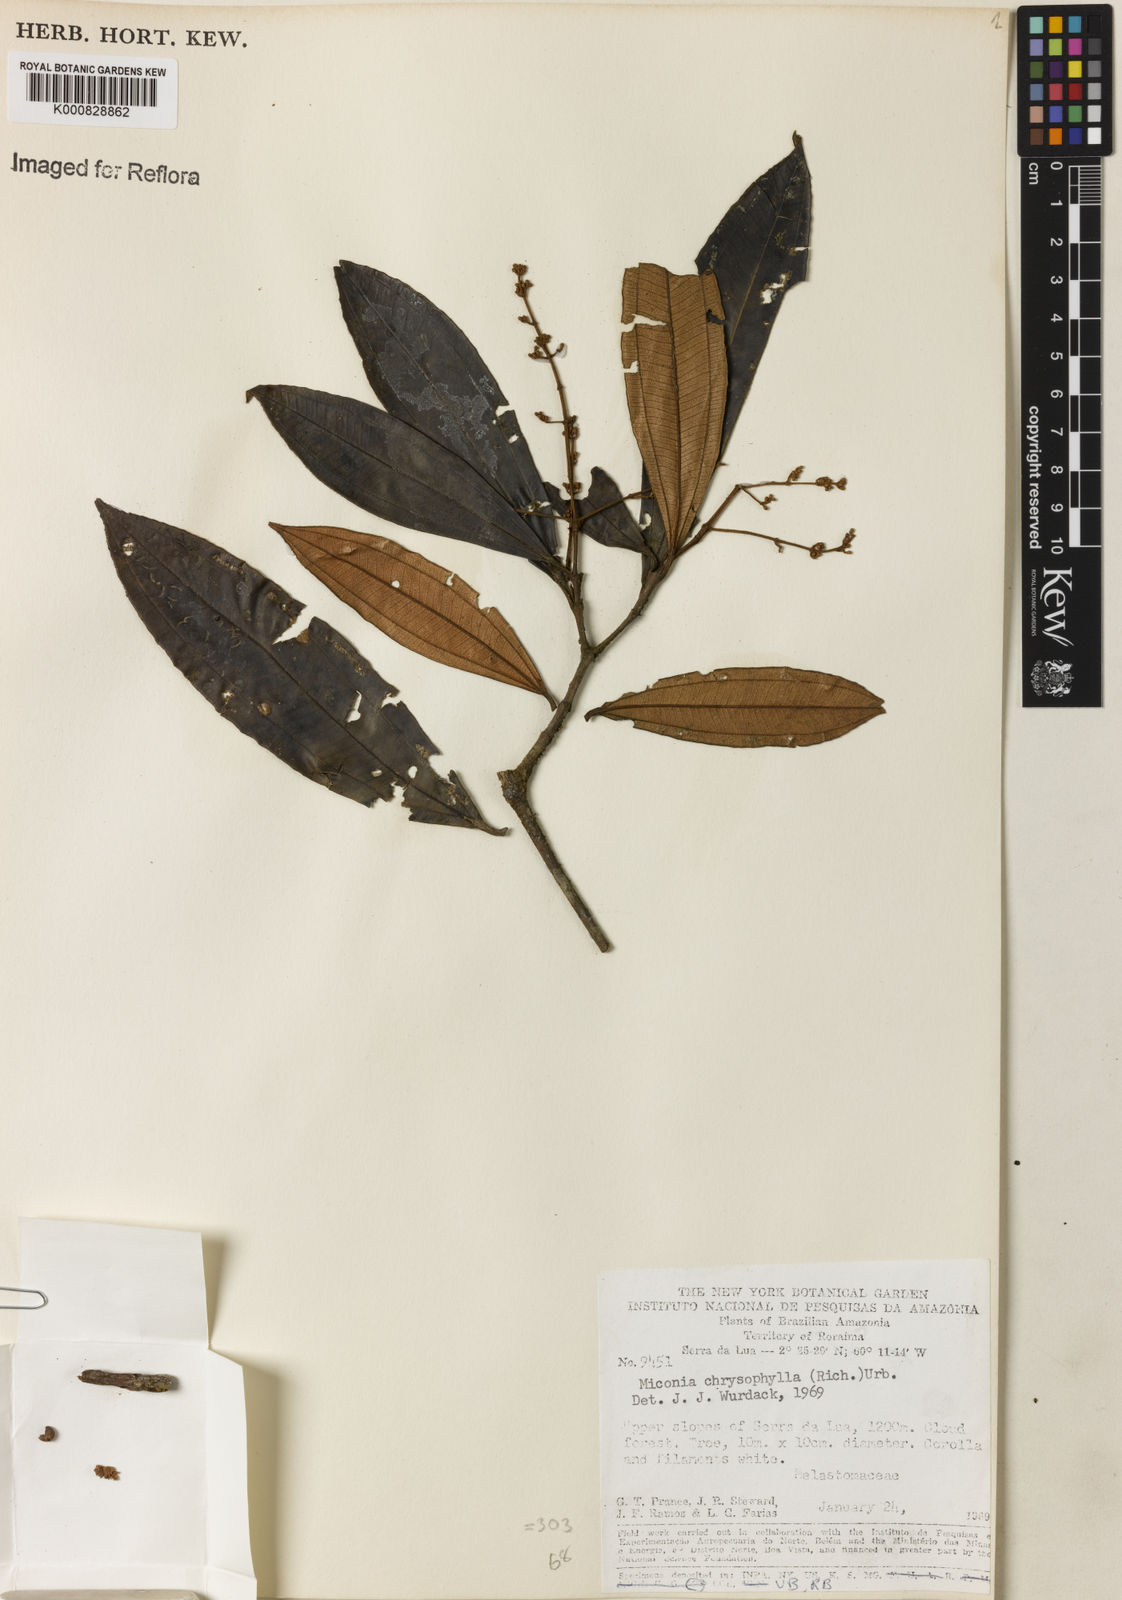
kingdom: Plantae
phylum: Tracheophyta
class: Magnoliopsida
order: Myrtales
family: Melastomataceae
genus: Miconia
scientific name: Miconia chrysophylla
